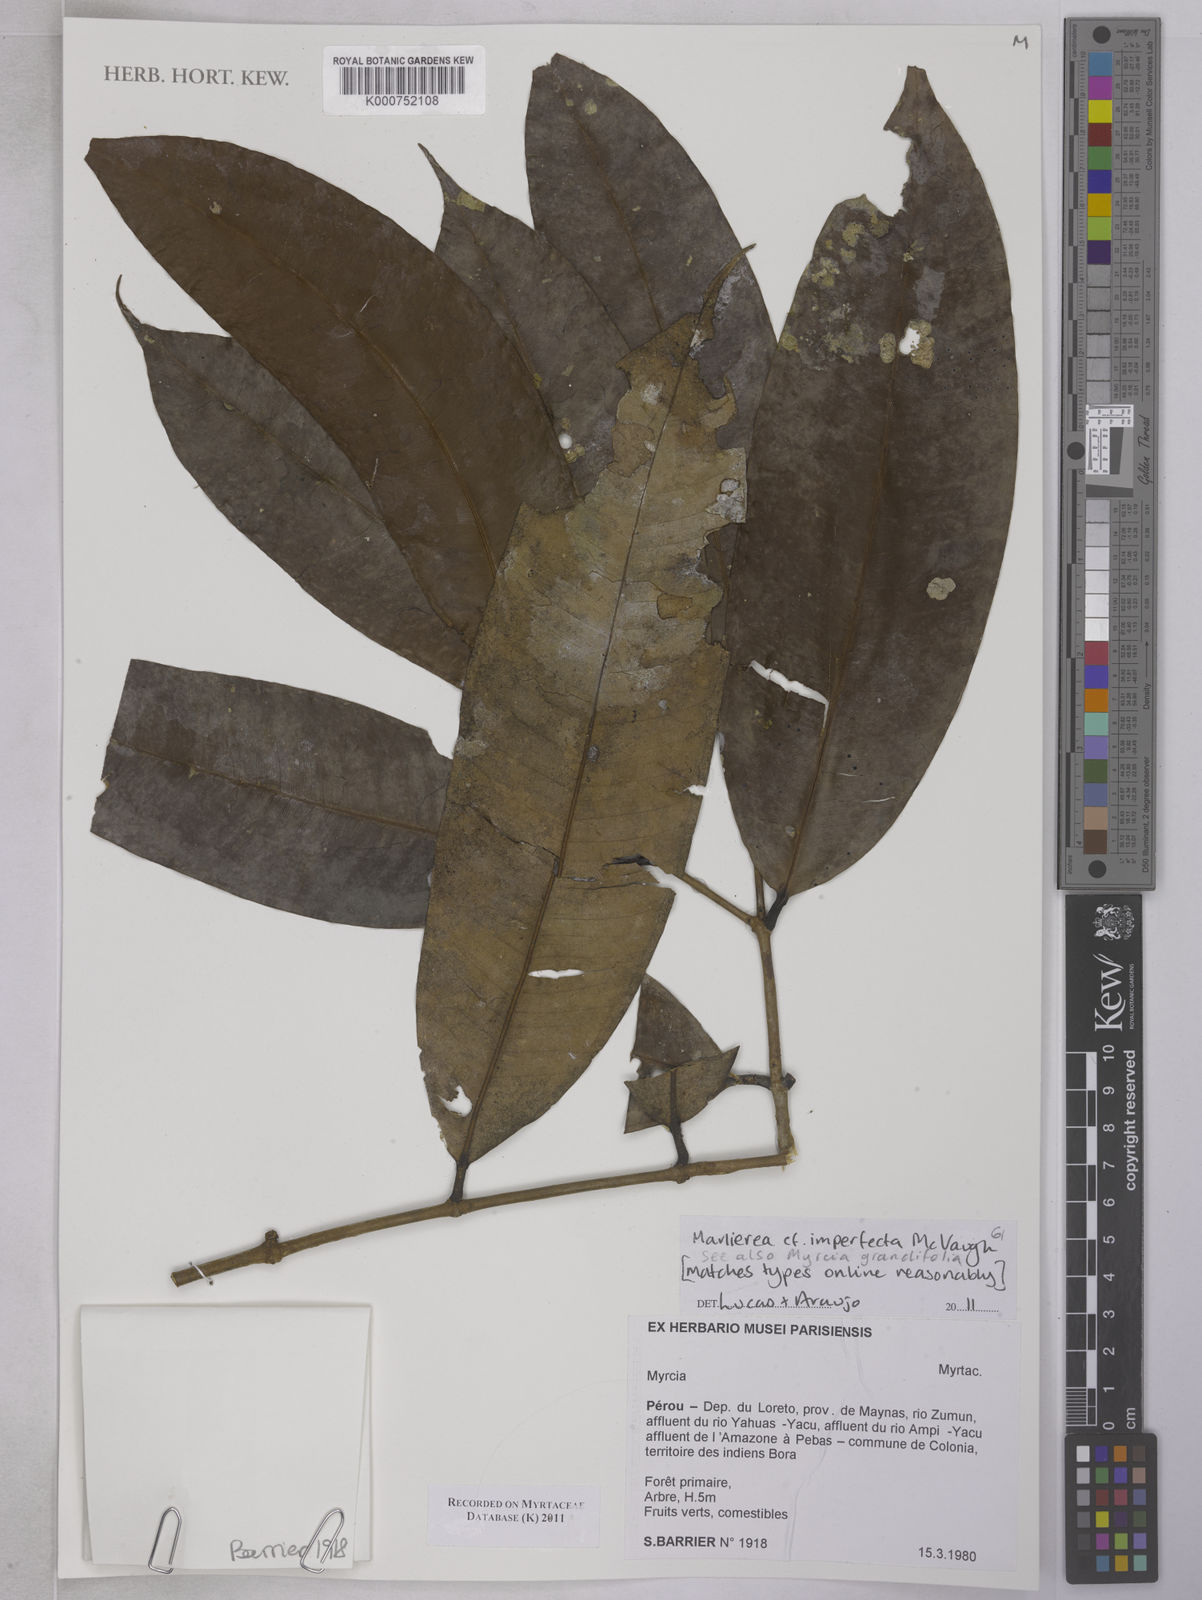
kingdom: Plantae
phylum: Tracheophyta
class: Magnoliopsida
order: Myrtales
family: Myrtaceae
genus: Myrcia
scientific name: Myrcia imperfecta
